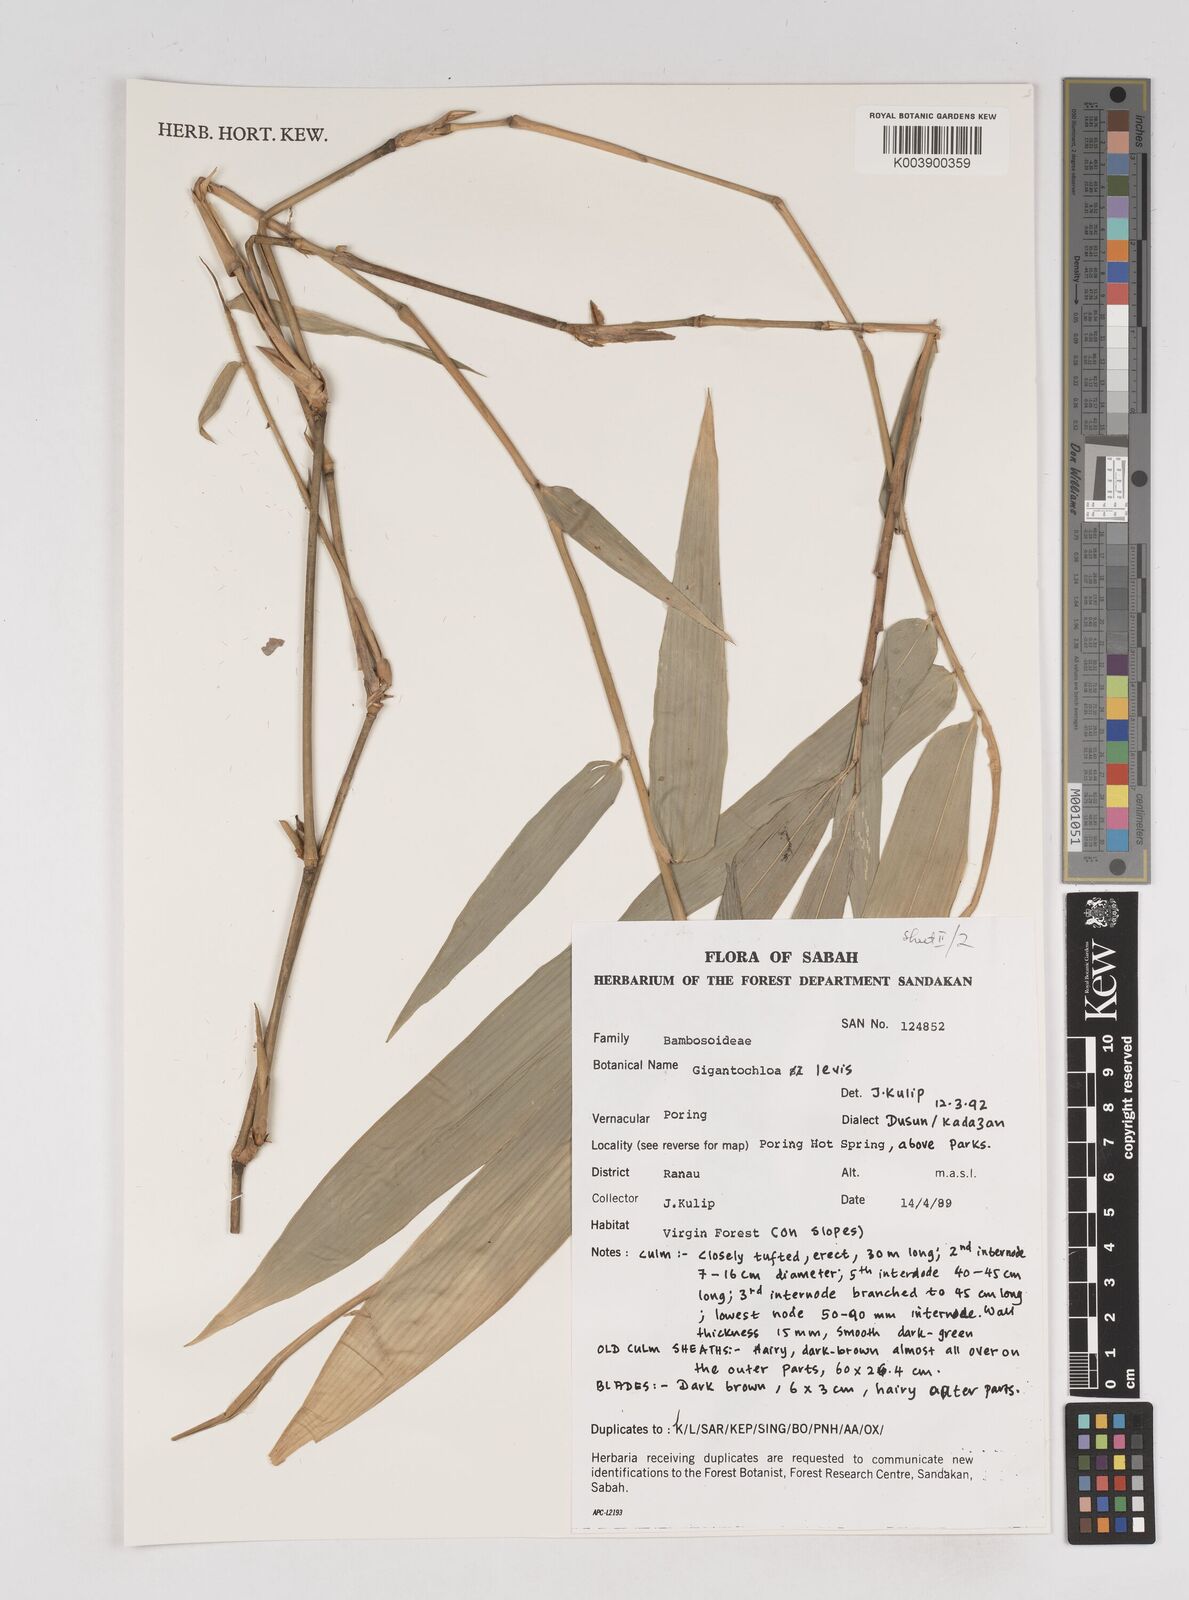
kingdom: Plantae
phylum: Tracheophyta
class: Liliopsida
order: Poales
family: Poaceae
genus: Gigantochloa
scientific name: Gigantochloa levis
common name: Smooth-shoot gigantochloa
